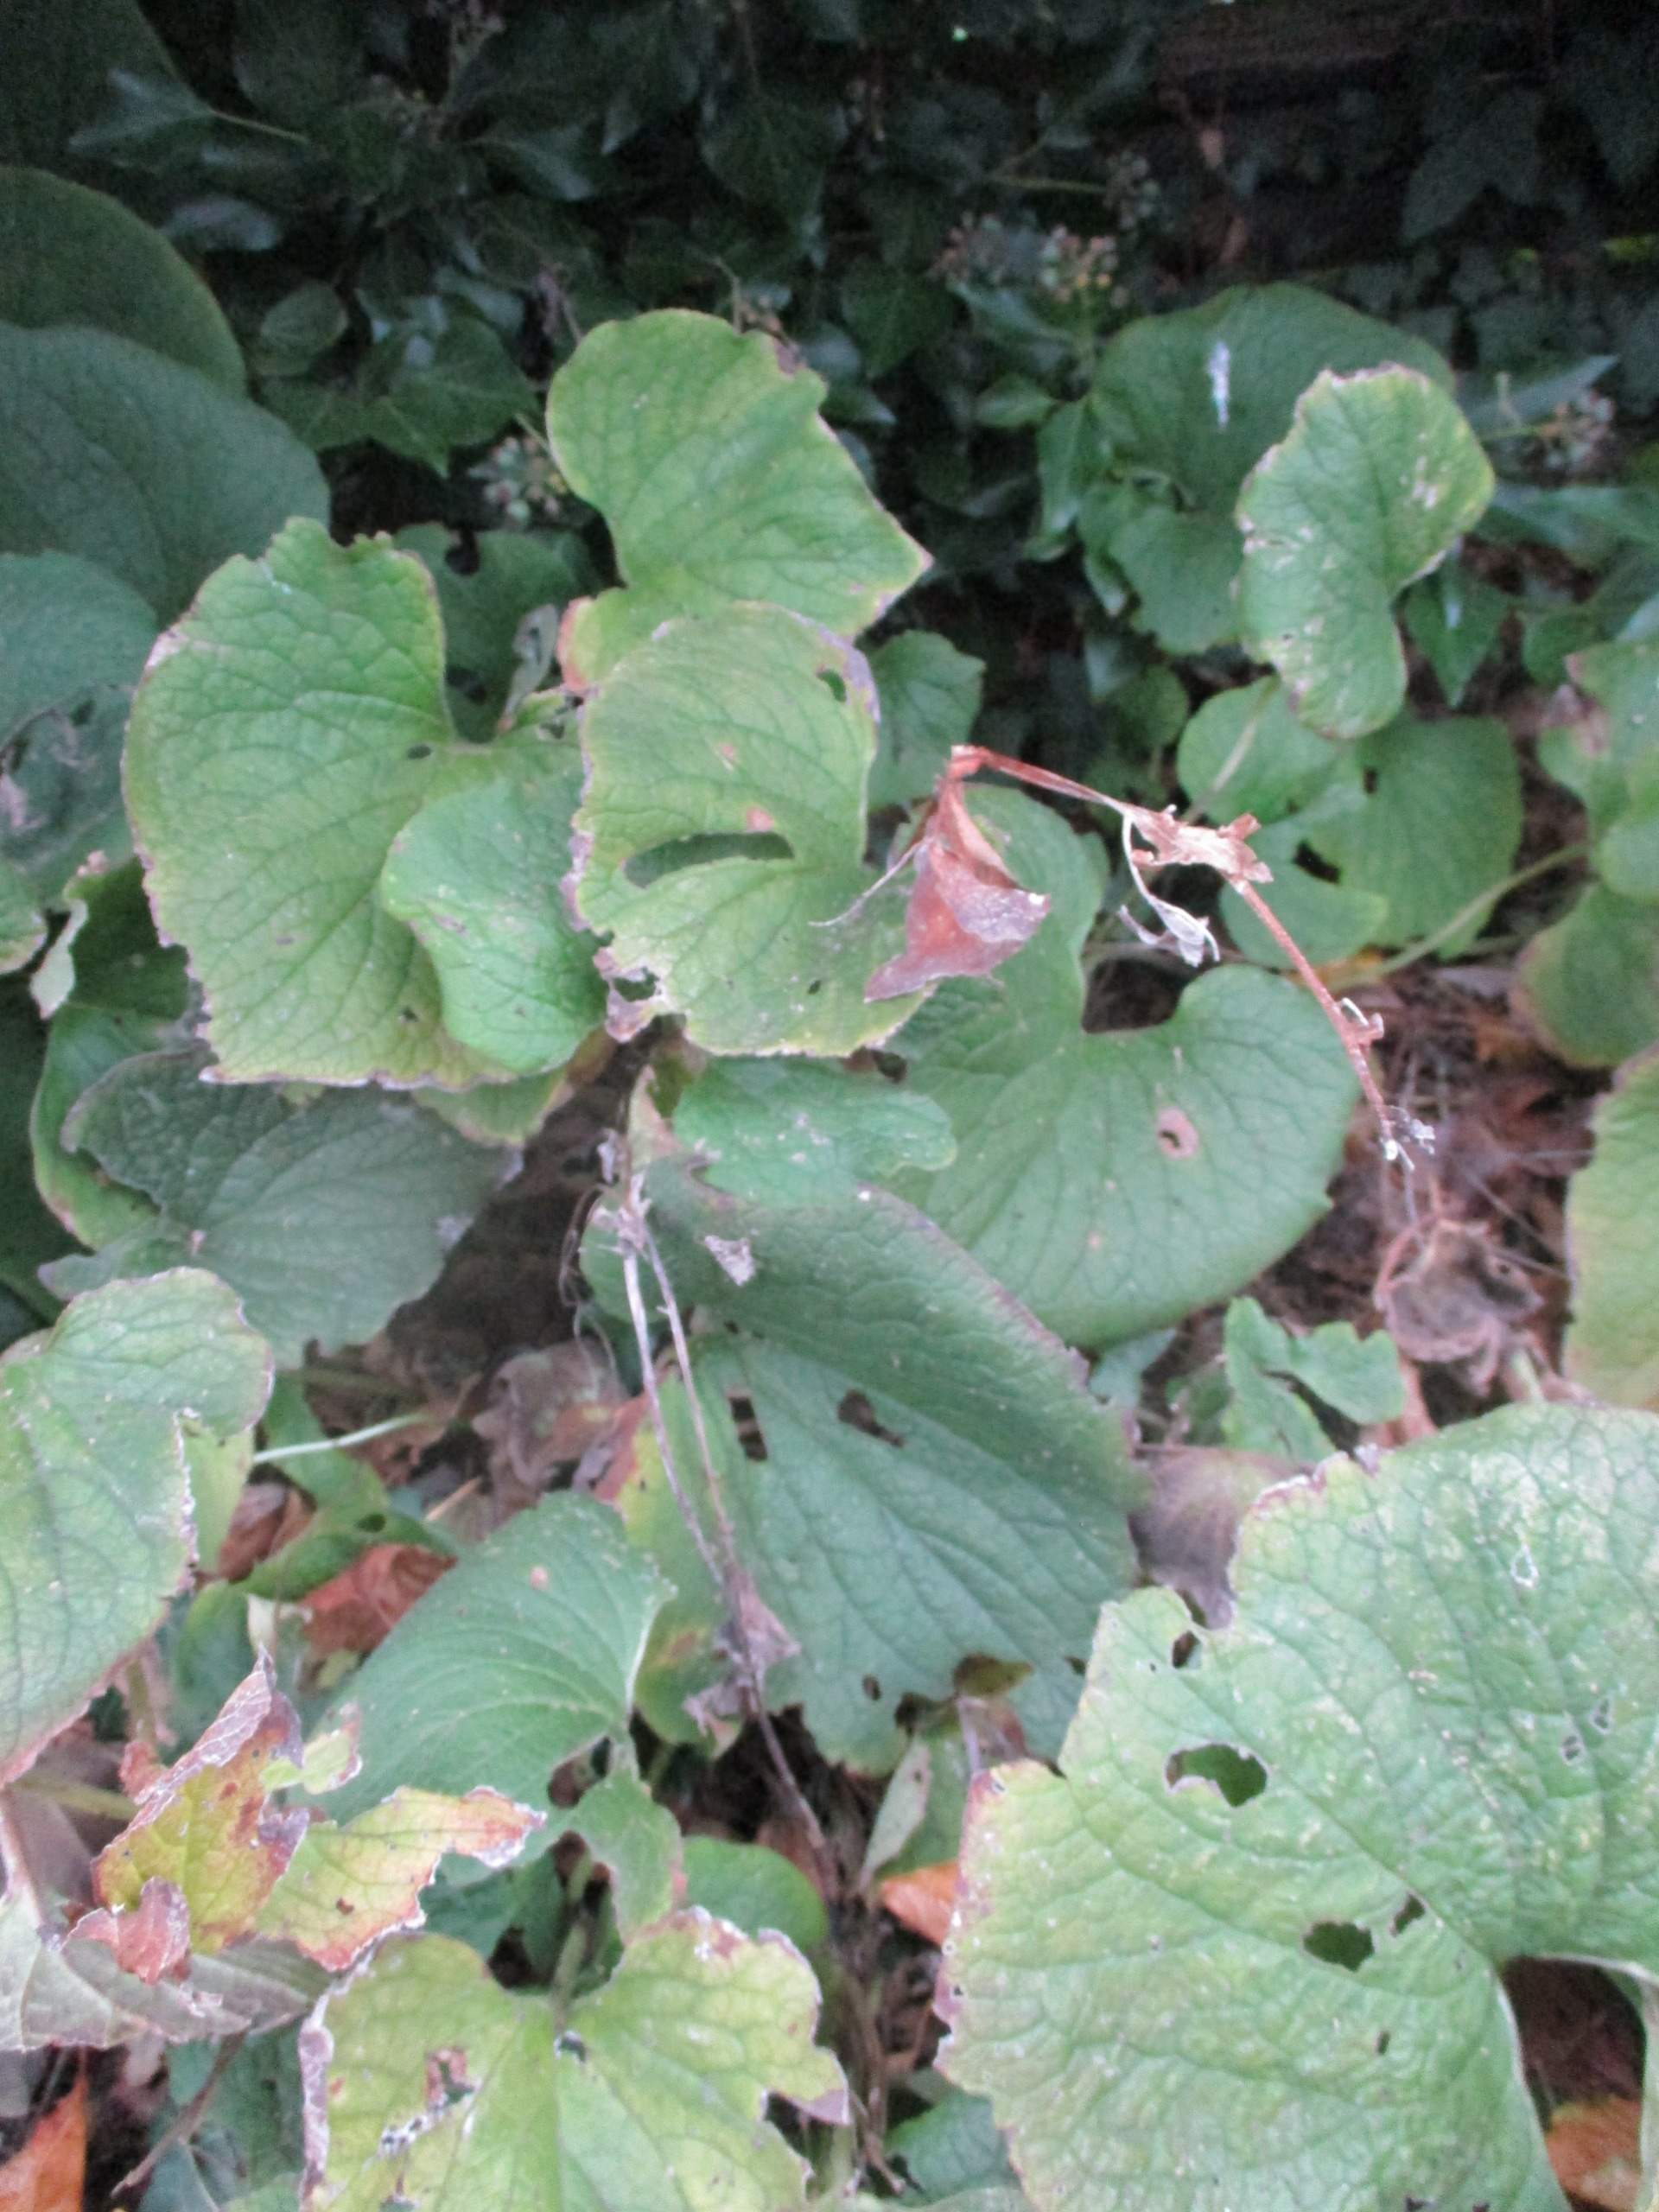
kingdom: Plantae
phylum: Tracheophyta
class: Magnoliopsida
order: Boraginales
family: Boraginaceae
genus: Brunnera
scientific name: Brunnera macrophylla
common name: Kærmindesøster
